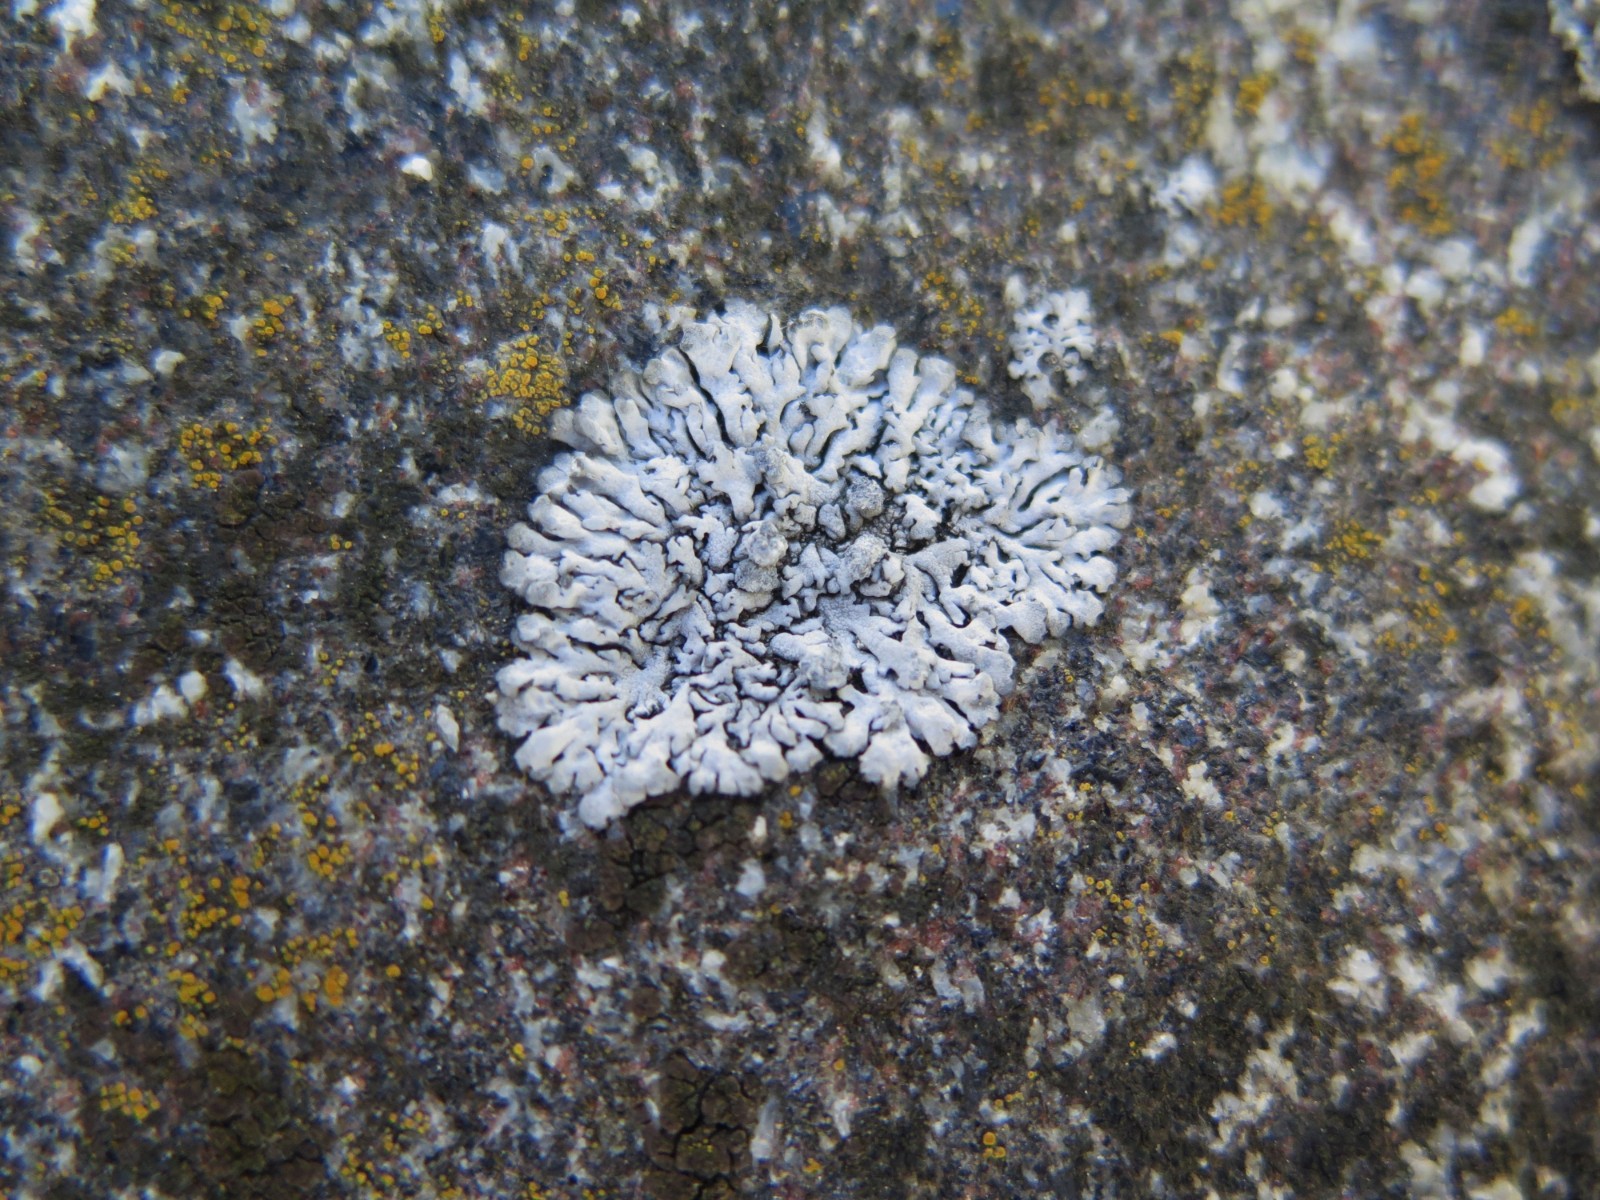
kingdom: Fungi
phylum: Ascomycota
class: Lecanoromycetes
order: Caliciales
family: Physciaceae
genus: Physcia
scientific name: Physcia caesia
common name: blågrå rosetlav
